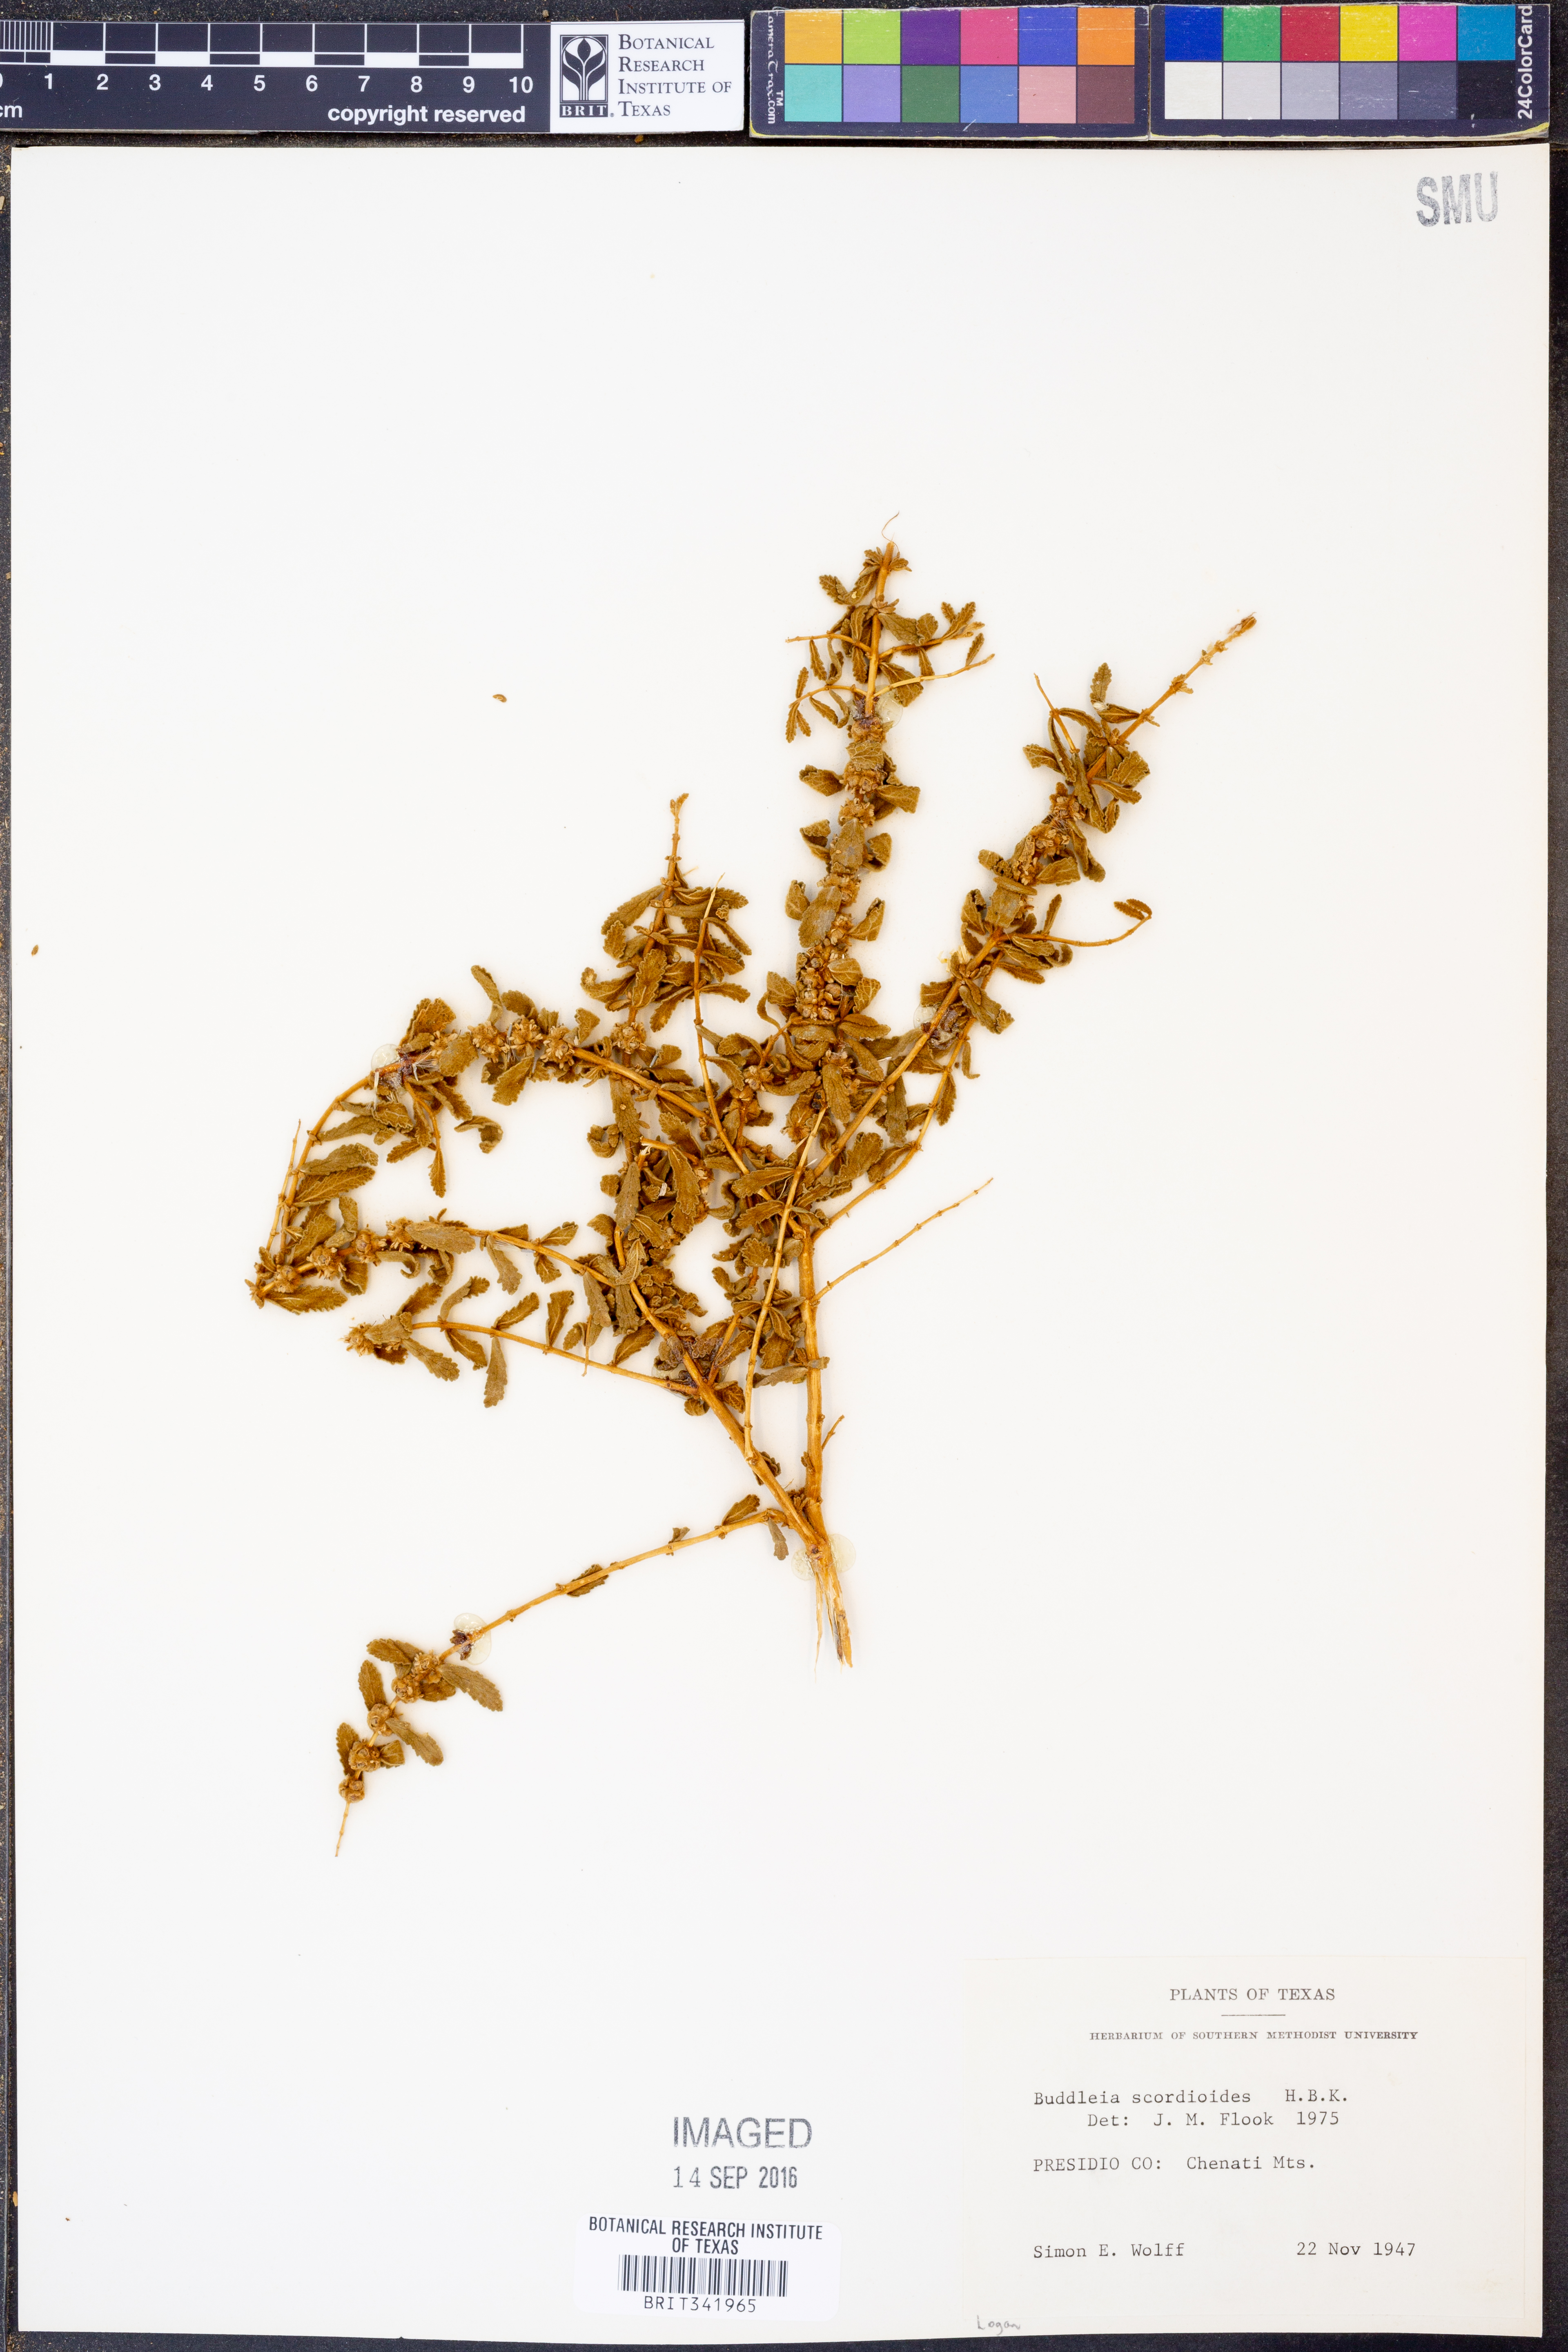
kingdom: Plantae
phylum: Tracheophyta
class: Magnoliopsida
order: Lamiales
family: Scrophulariaceae
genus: Buddleja
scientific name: Buddleja scordioides
